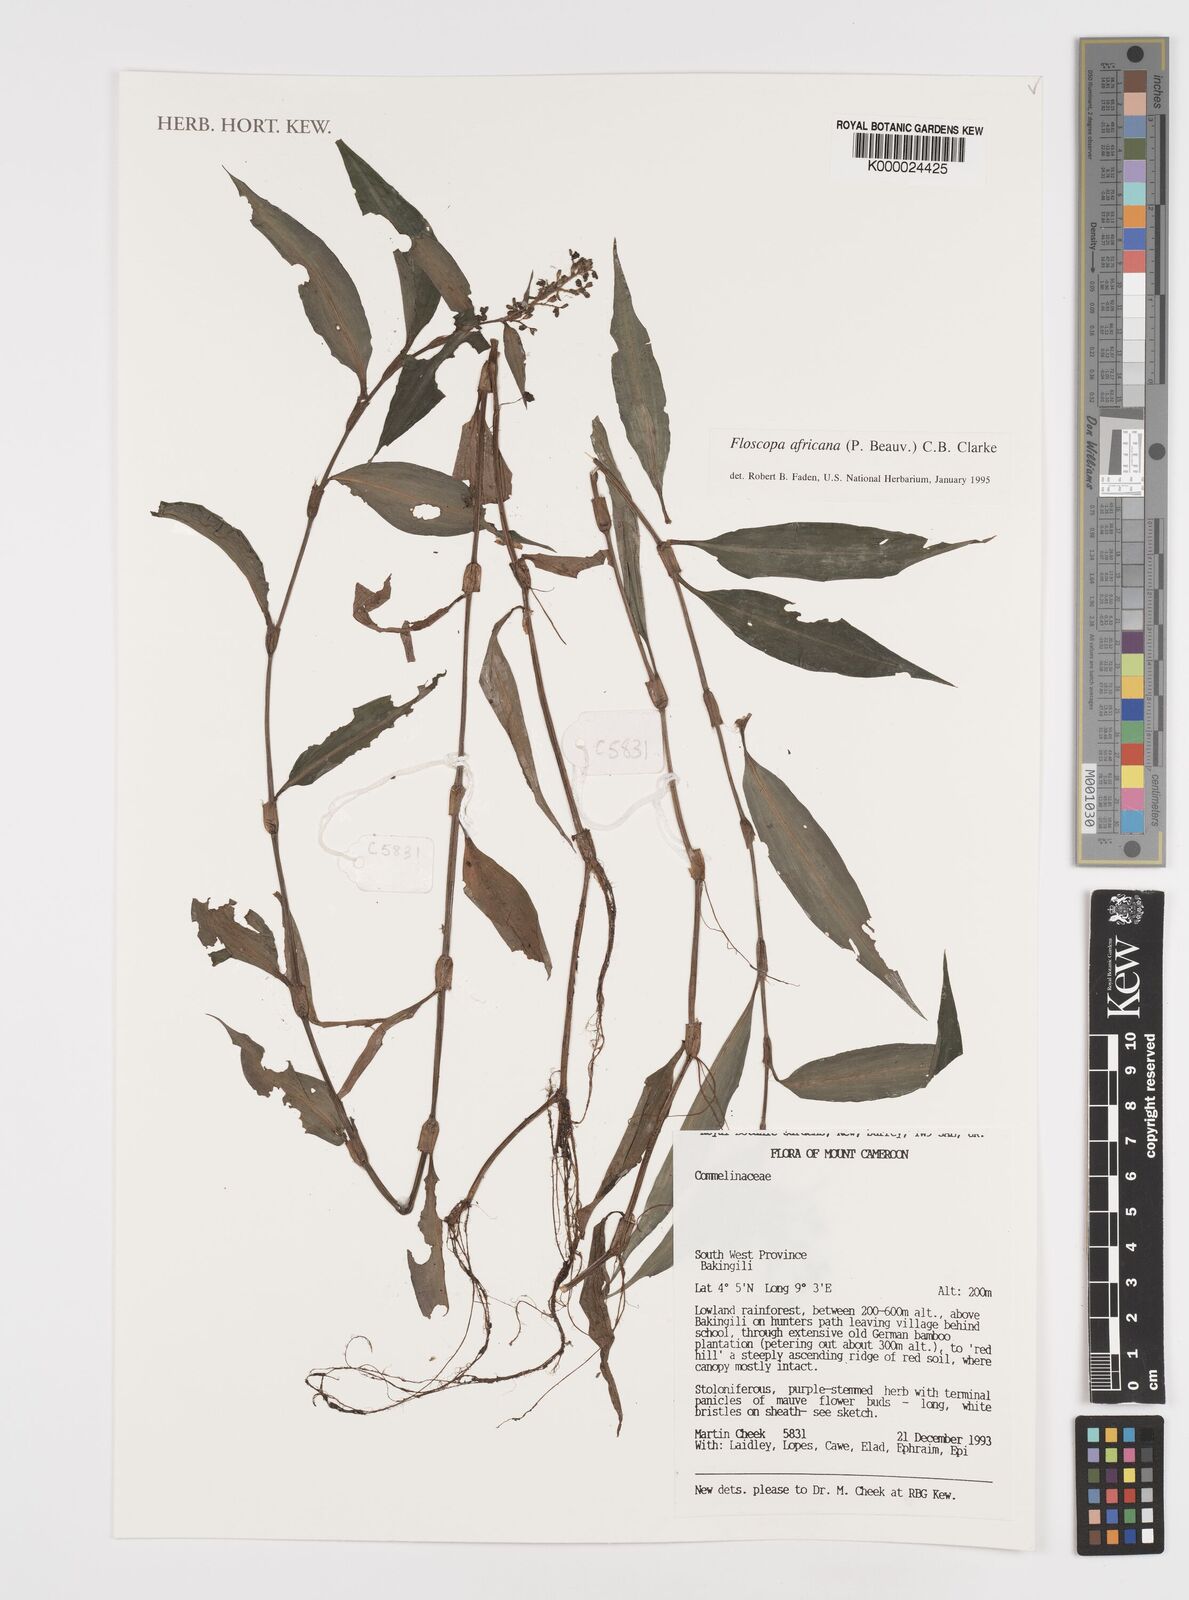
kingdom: Plantae
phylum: Tracheophyta
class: Liliopsida
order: Commelinales
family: Commelinaceae
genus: Floscopa
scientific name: Floscopa africana
